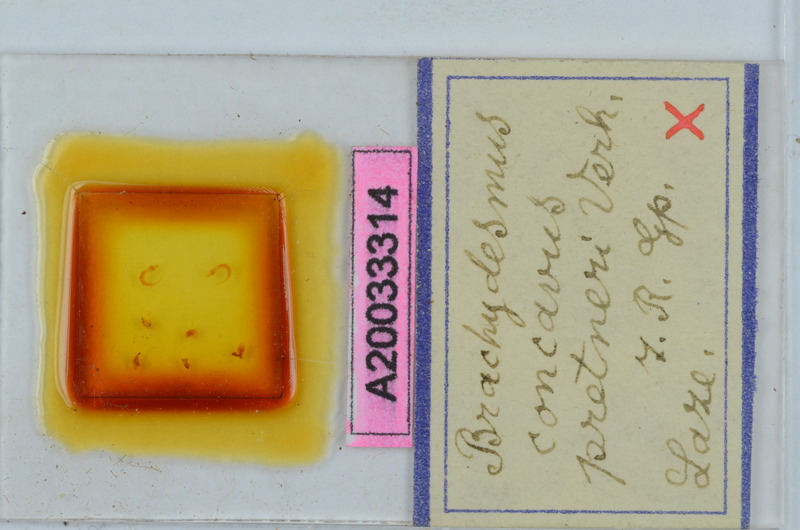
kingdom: Animalia
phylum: Arthropoda
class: Diplopoda
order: Polydesmida
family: Polydesmidae
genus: Brachydesmus
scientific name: Brachydesmus concavus
